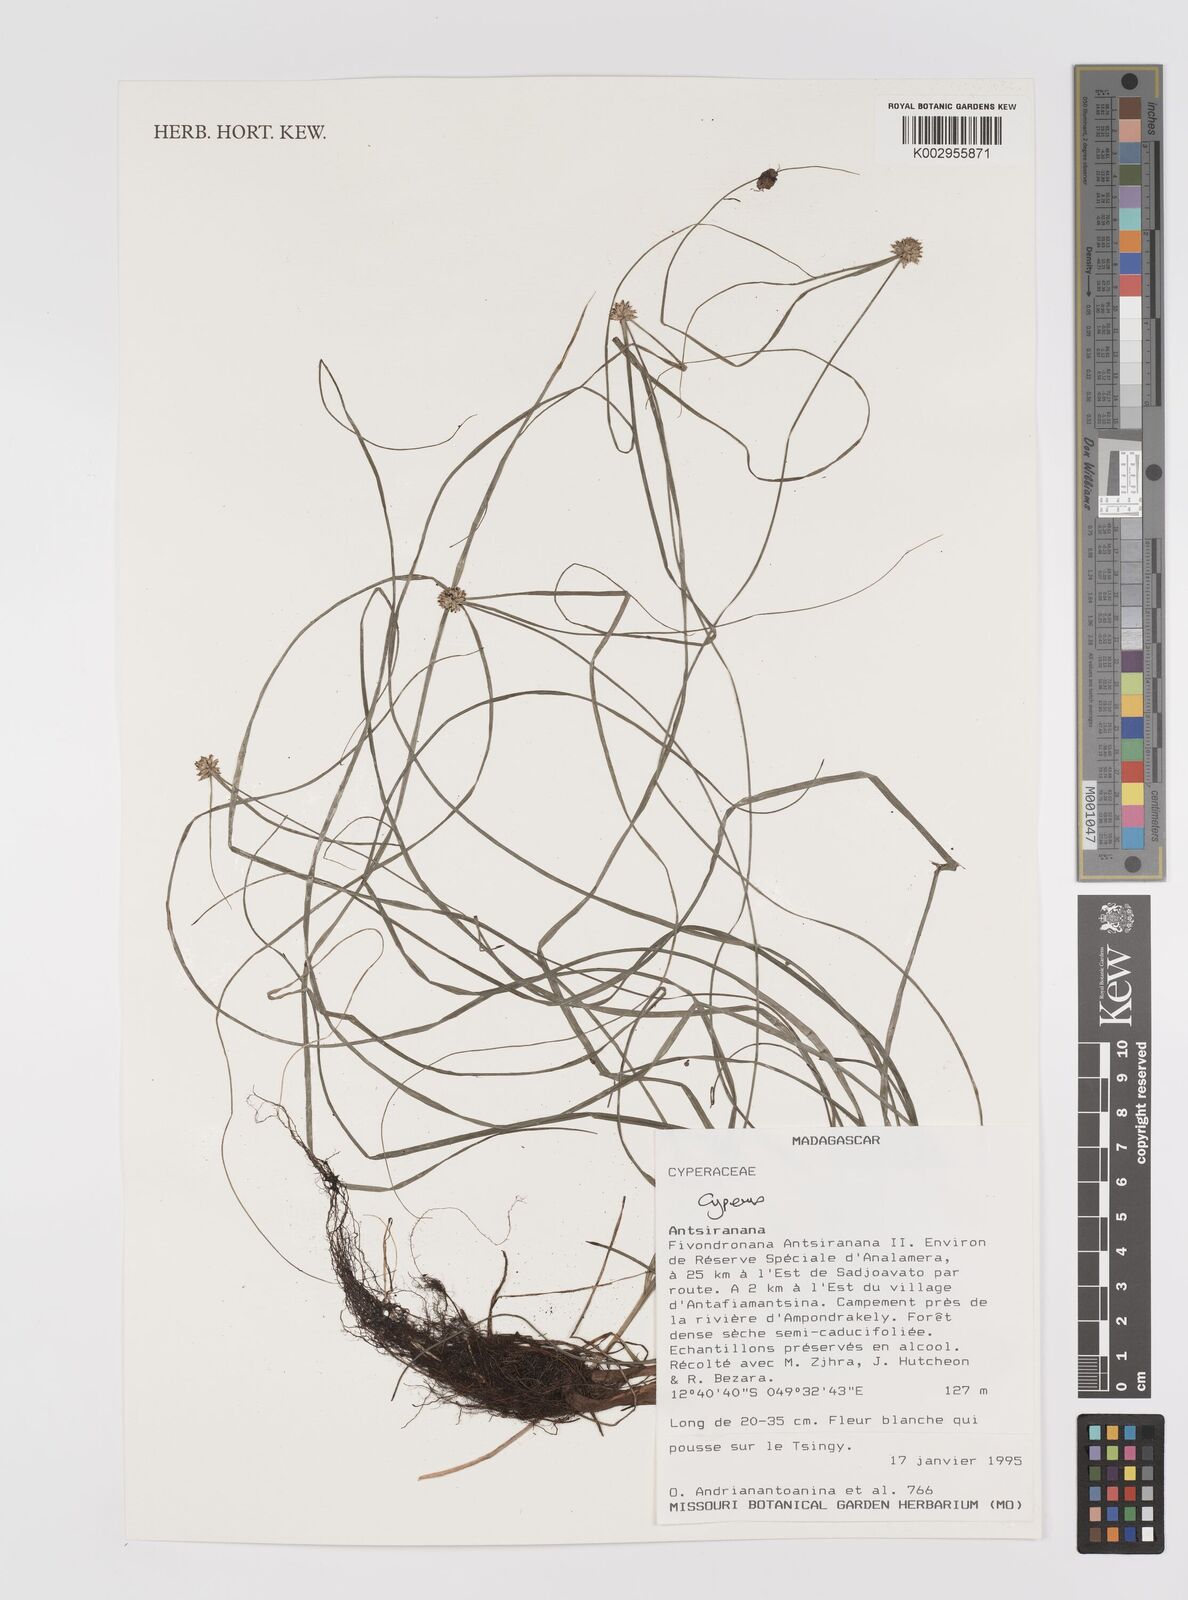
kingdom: Plantae
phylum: Tracheophyta
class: Liliopsida
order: Poales
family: Cyperaceae
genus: Cyperus
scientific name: Cyperus
